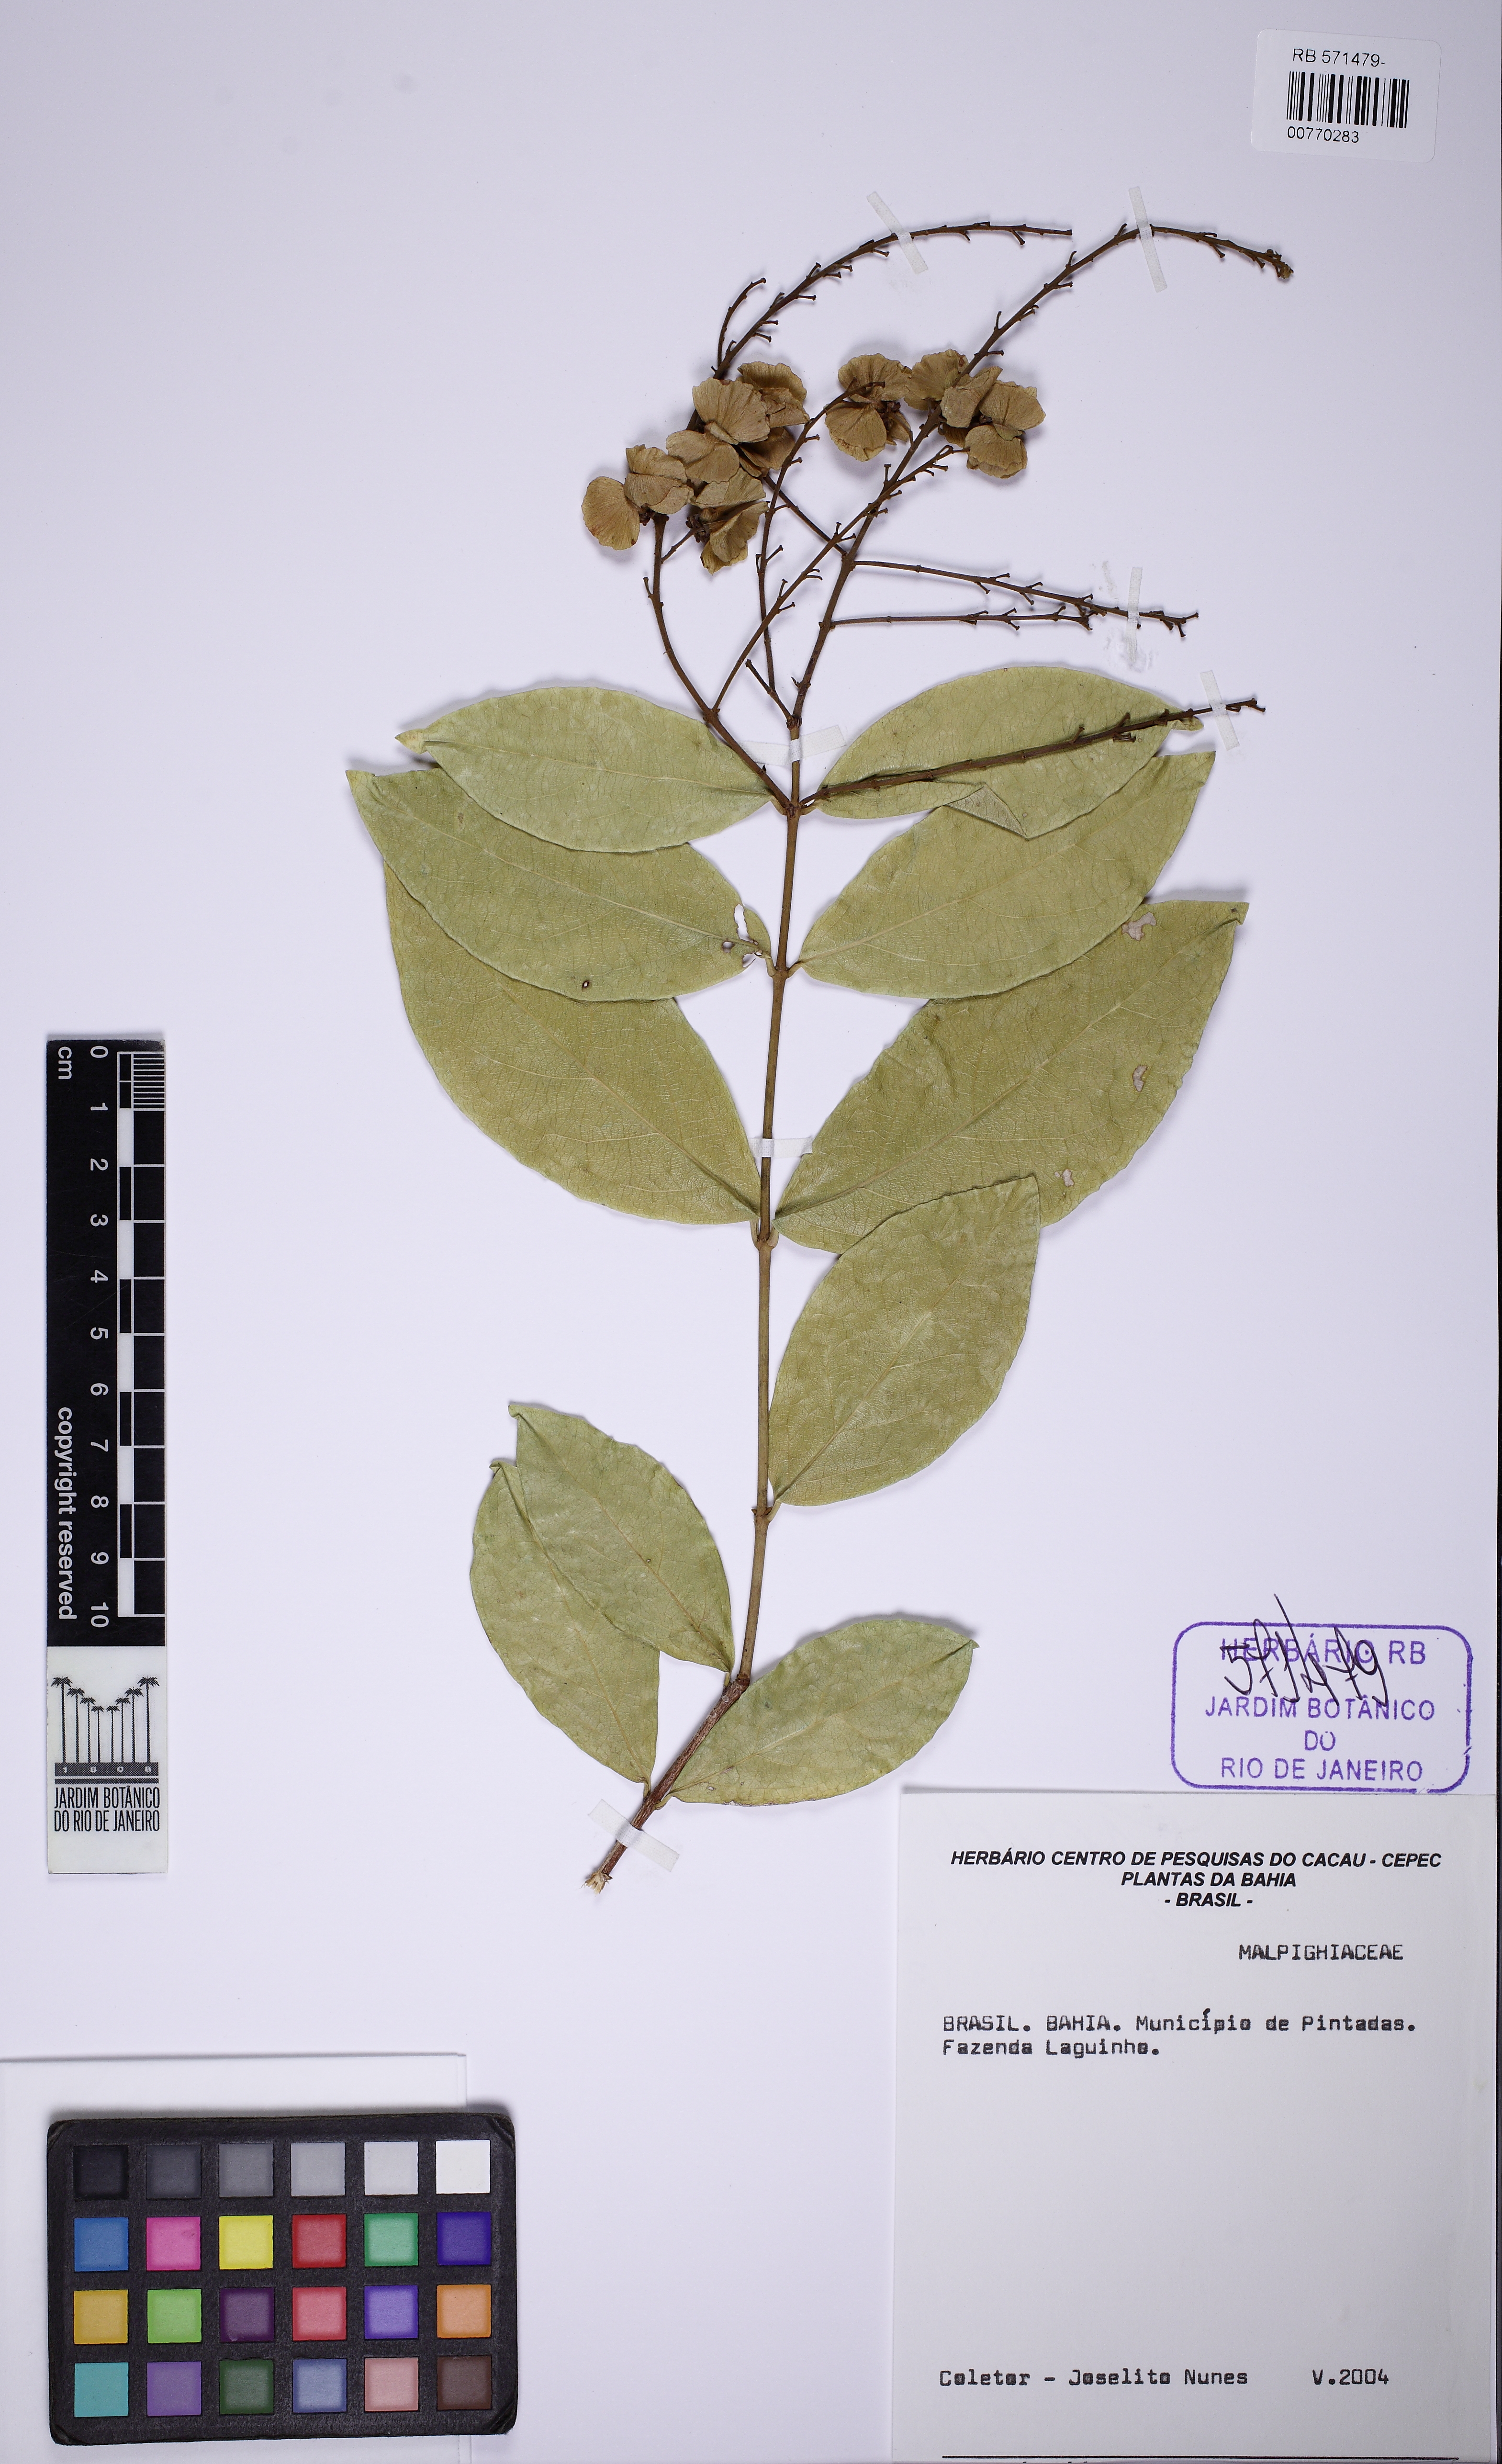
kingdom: Plantae
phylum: Tracheophyta
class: Magnoliopsida
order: Malpighiales
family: Malpighiaceae
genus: Amorimia
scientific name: Amorimia pellegrinii
